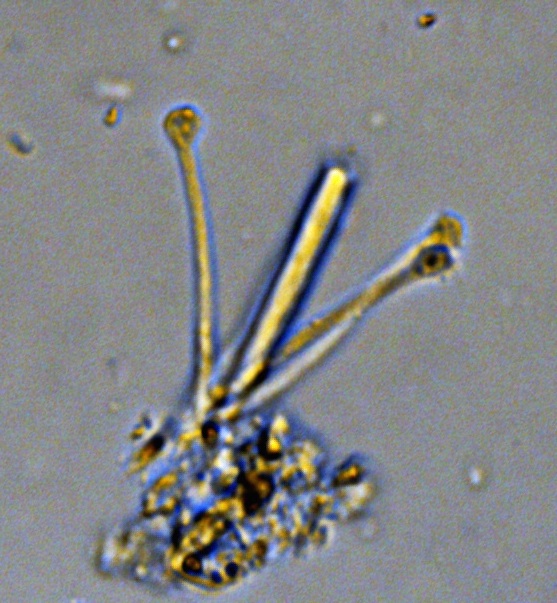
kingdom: Fungi
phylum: Ascomycota
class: Orbiliomycetes
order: Orbiliales
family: Orbiliaceae
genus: Orbilia
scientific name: Orbilia sarraziniana
